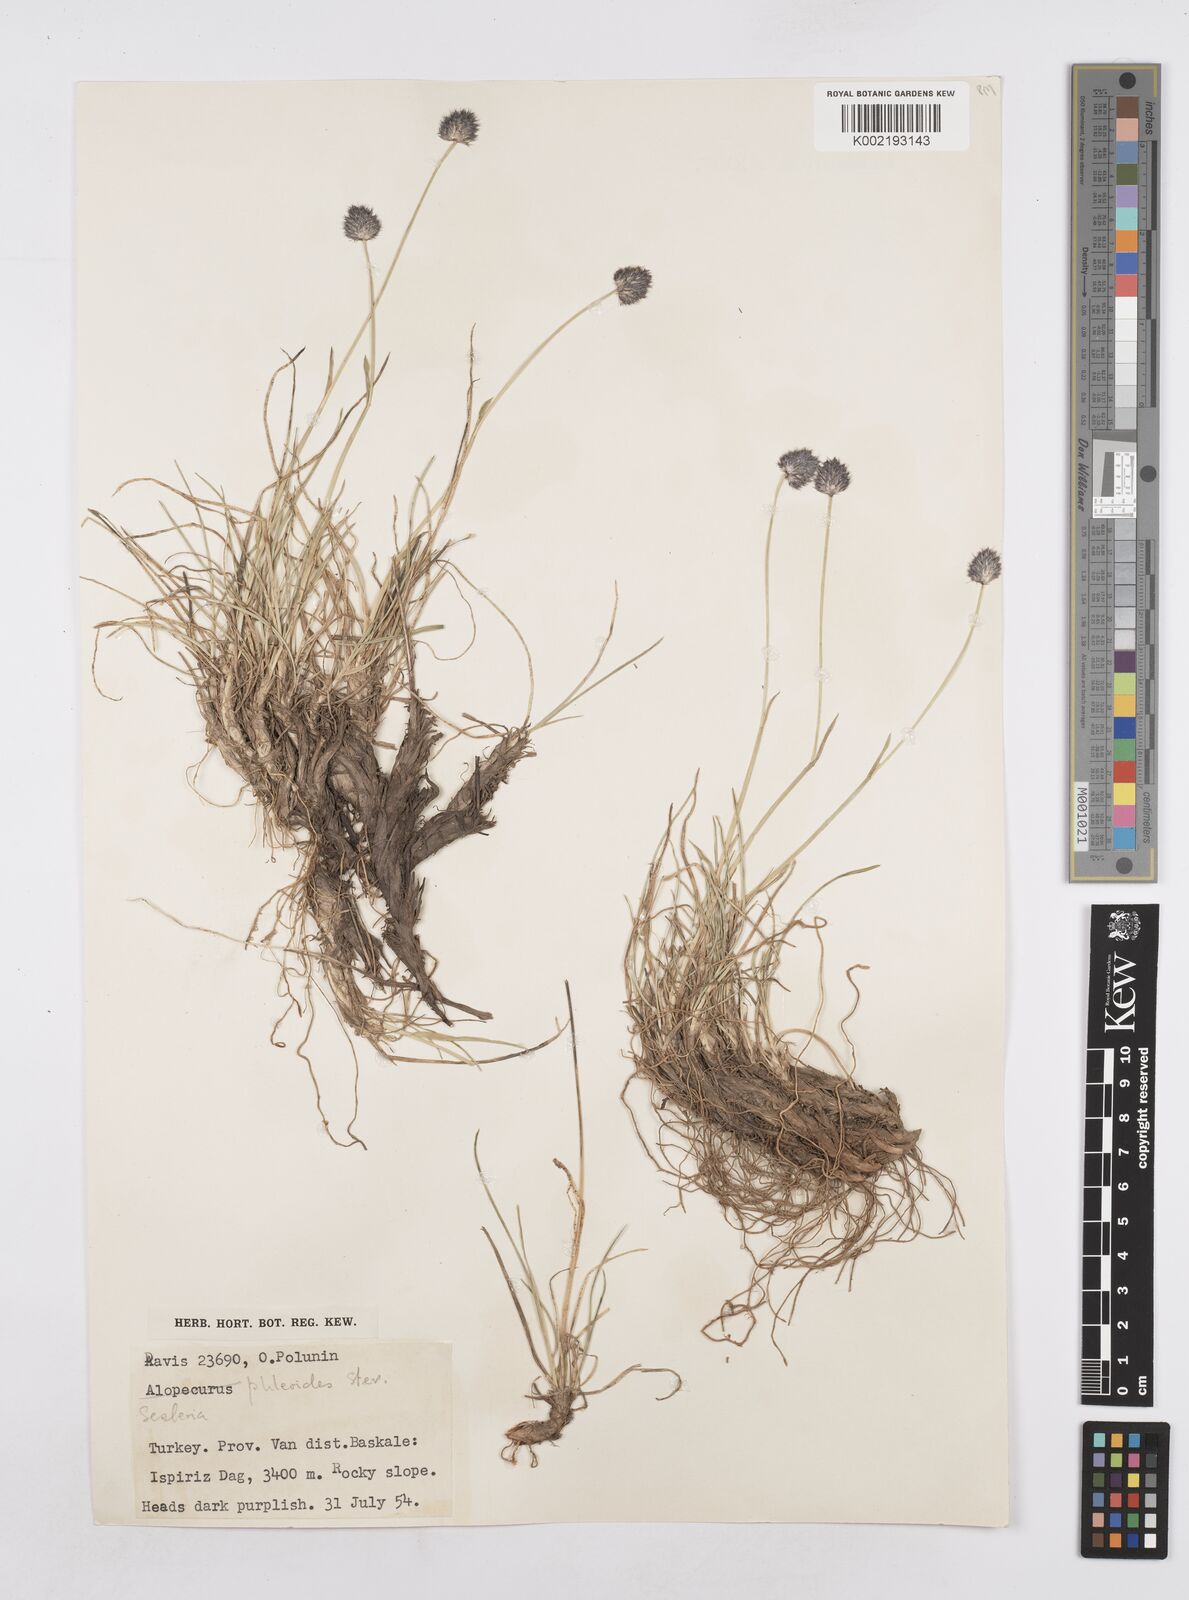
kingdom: Plantae
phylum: Tracheophyta
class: Liliopsida
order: Poales
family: Poaceae
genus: Sesleria
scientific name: Sesleria phleoides
